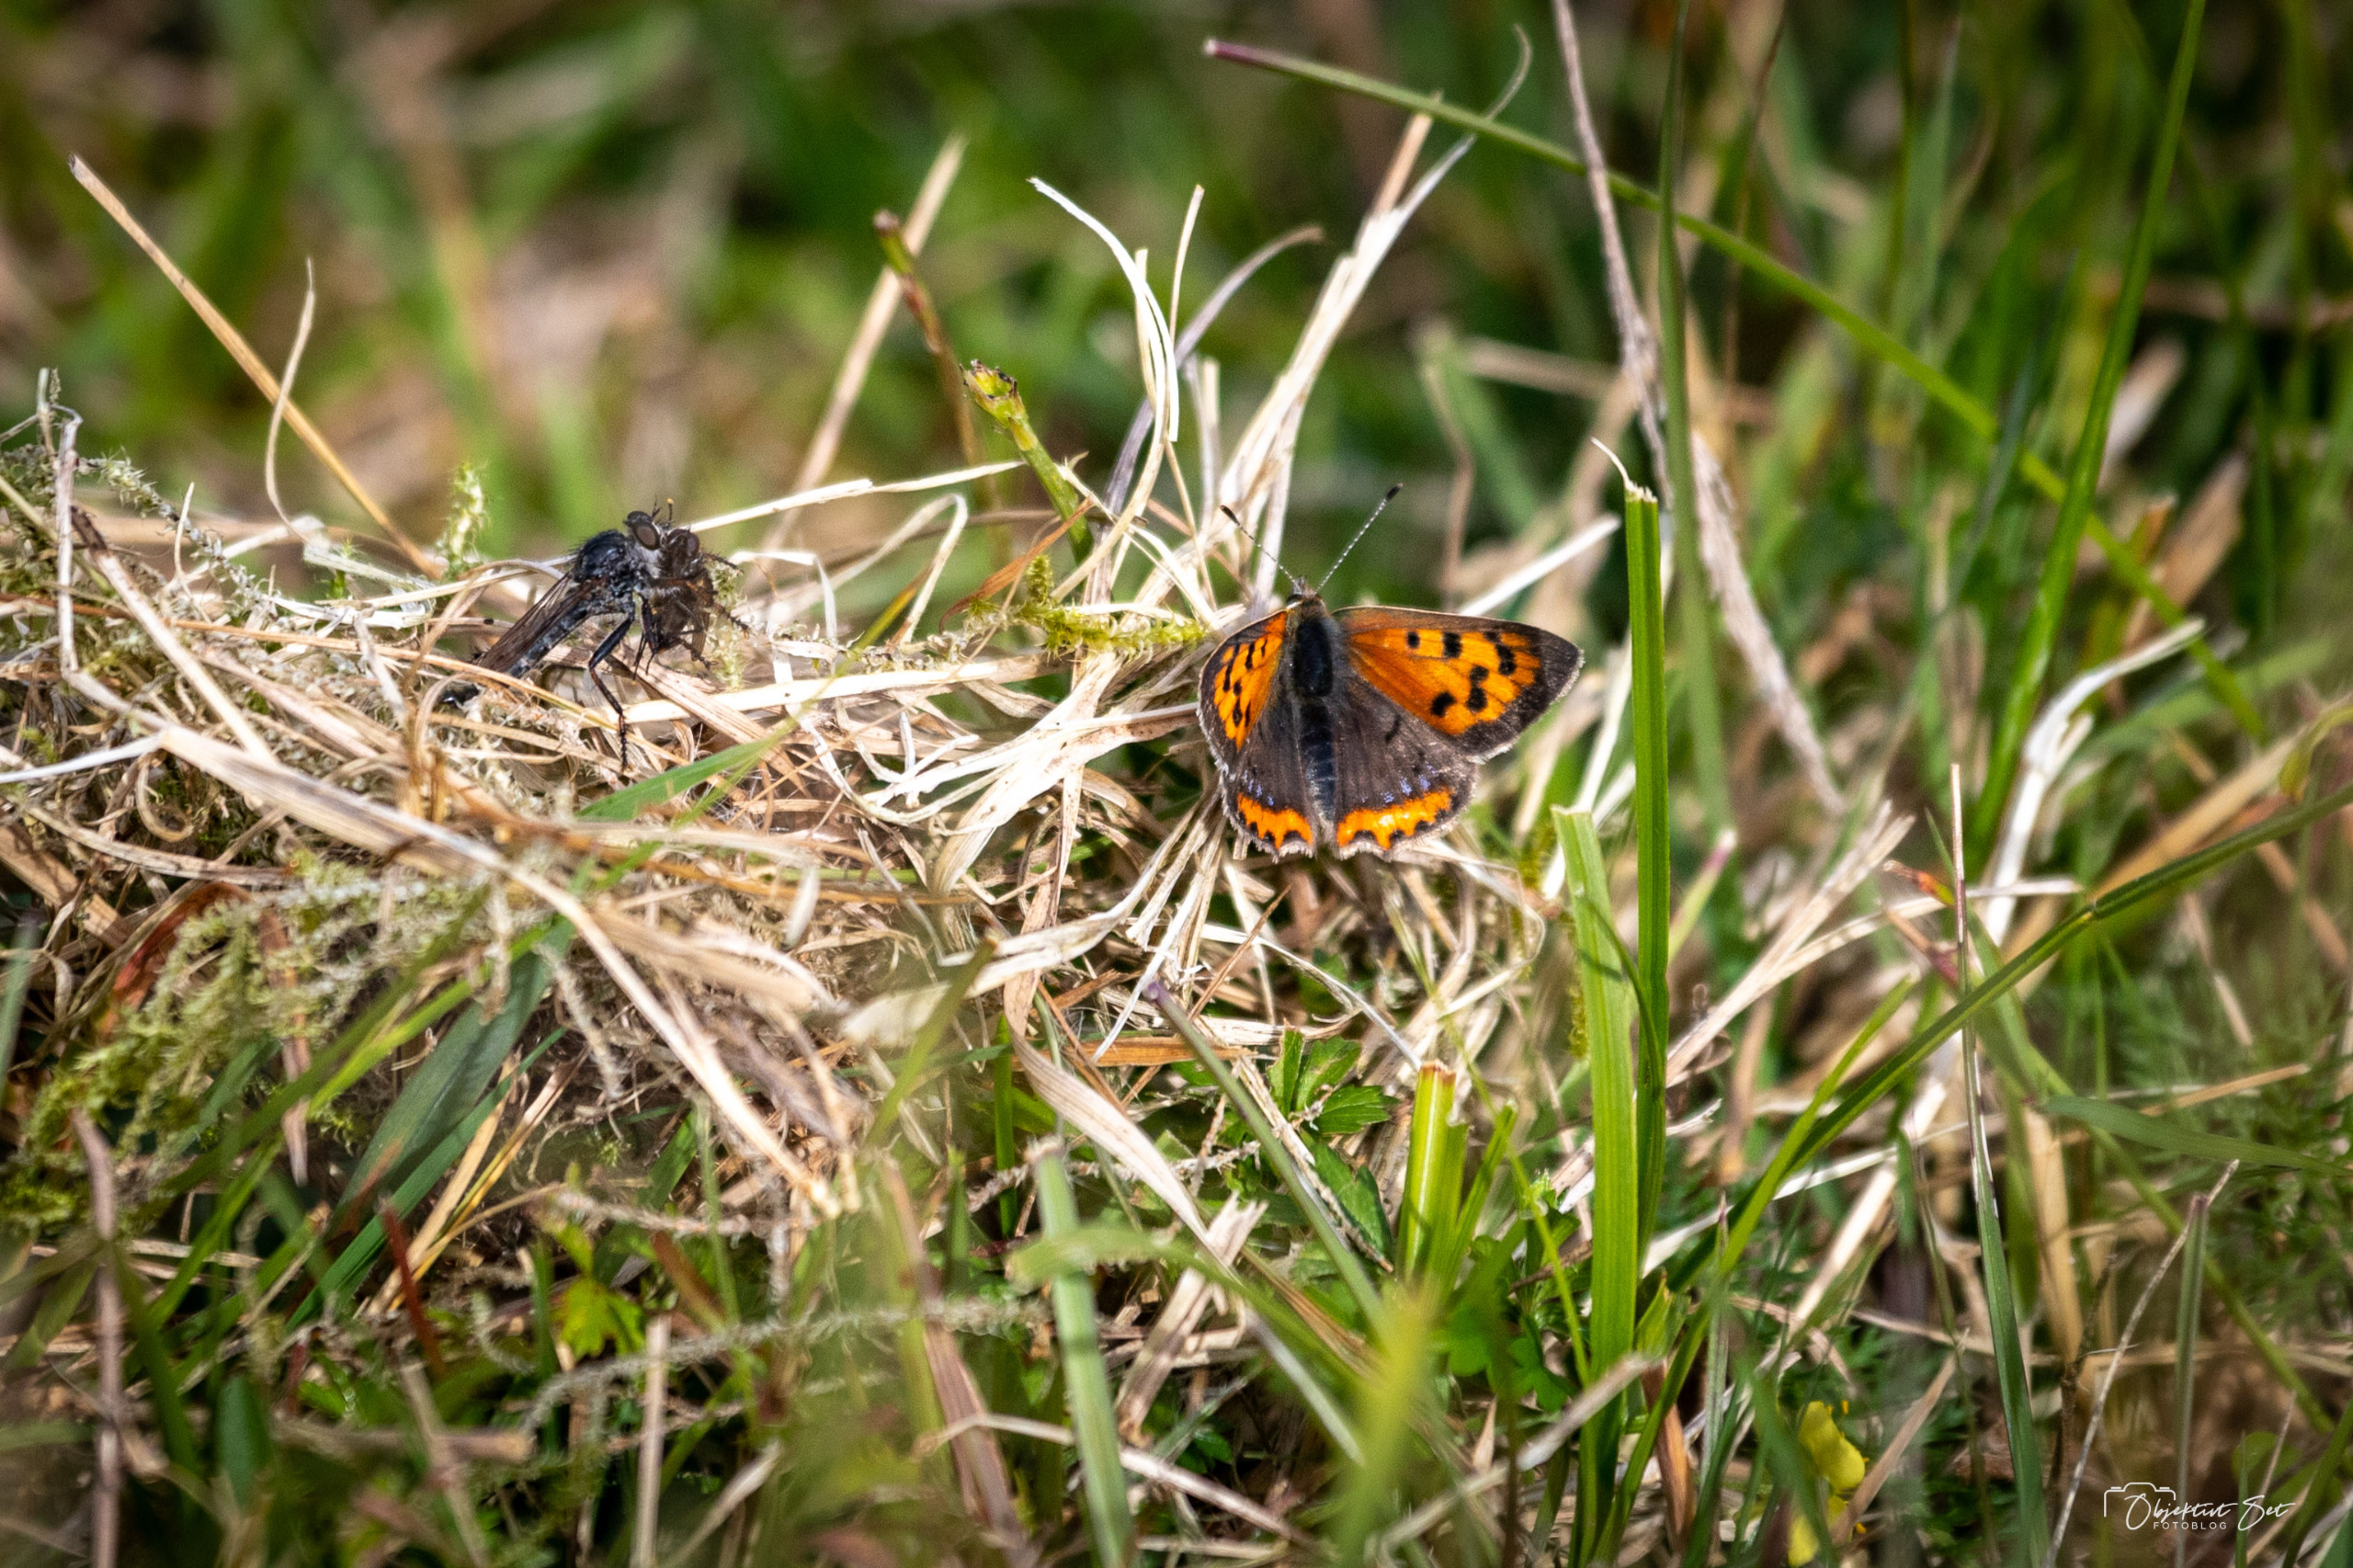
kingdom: Animalia
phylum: Arthropoda
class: Insecta
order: Lepidoptera
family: Lycaenidae
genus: Lycaena
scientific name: Lycaena phlaeas
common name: Lille ildfugl
